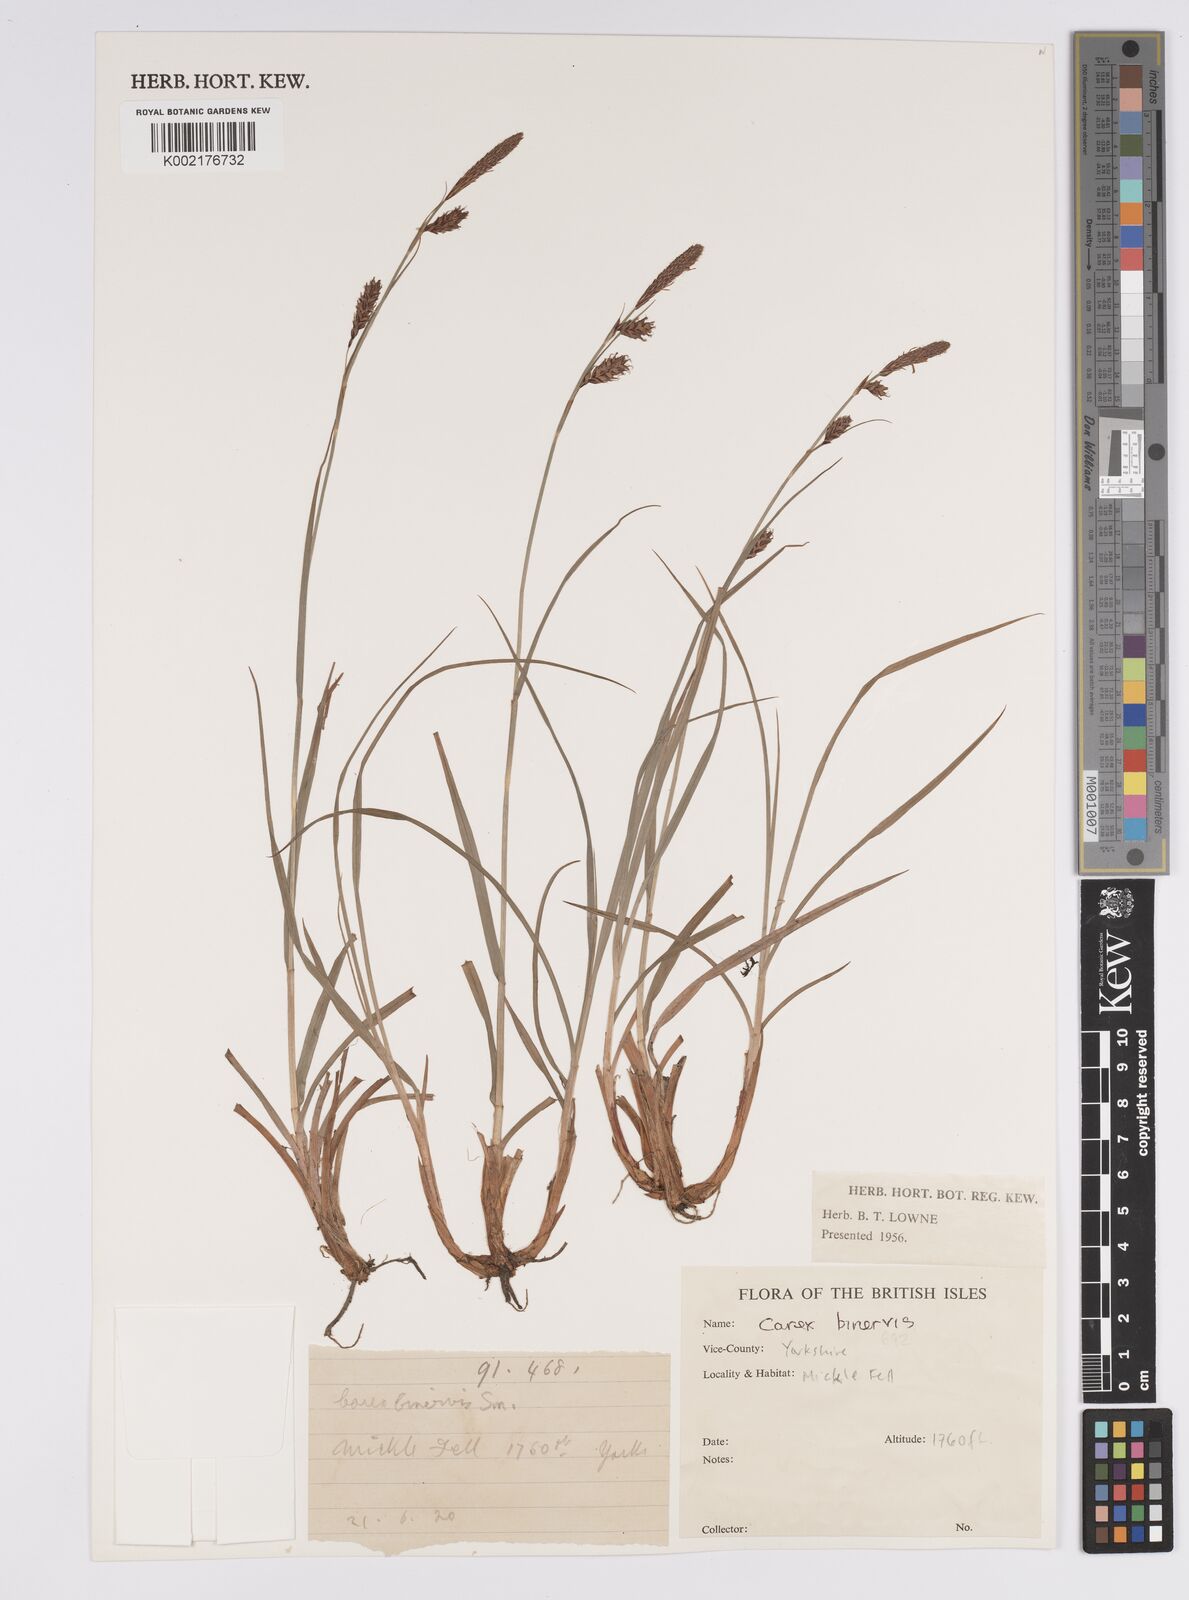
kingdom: Plantae
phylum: Tracheophyta
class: Liliopsida
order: Poales
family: Cyperaceae
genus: Carex
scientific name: Carex binervis
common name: Green-ribbed sedge
